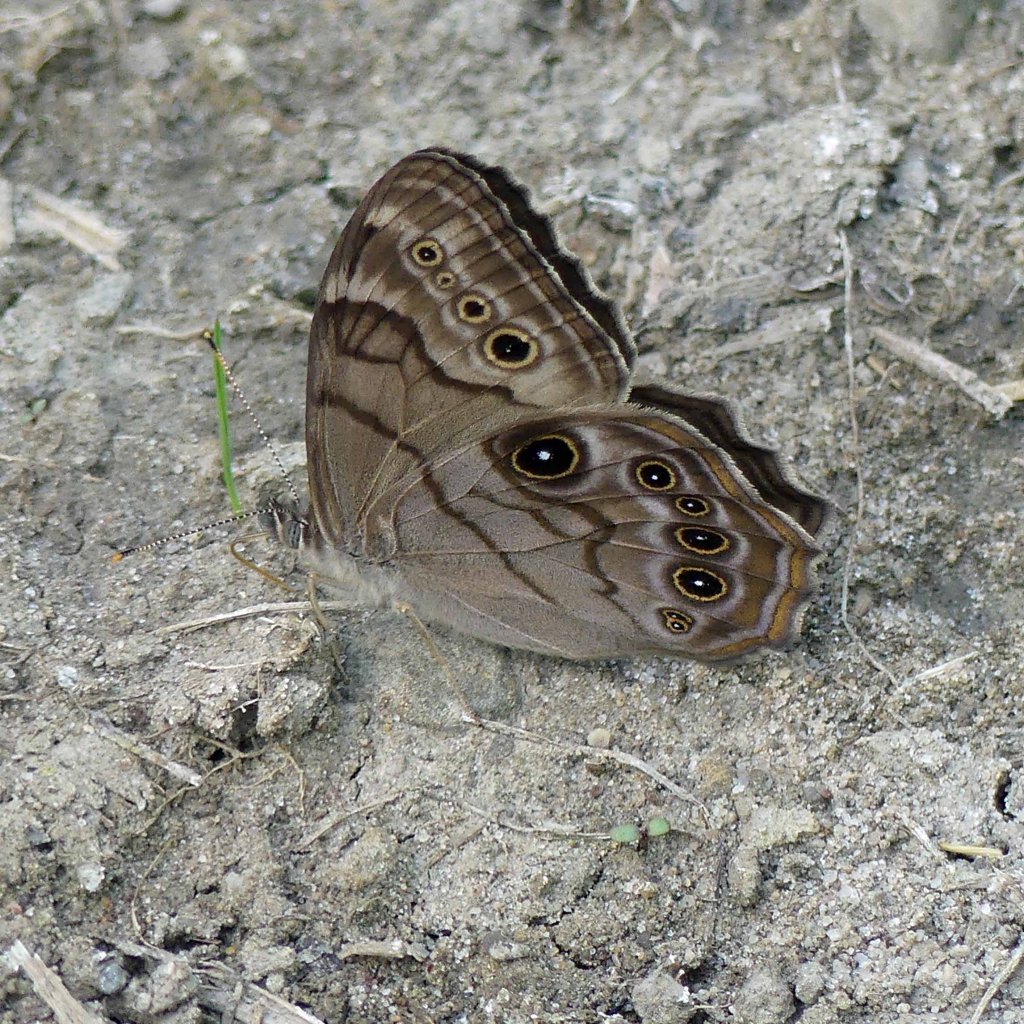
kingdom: Animalia
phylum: Arthropoda
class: Insecta
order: Lepidoptera
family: Nymphalidae
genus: Lethe
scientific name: Lethe anthedon
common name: Northern Pearly-Eye
